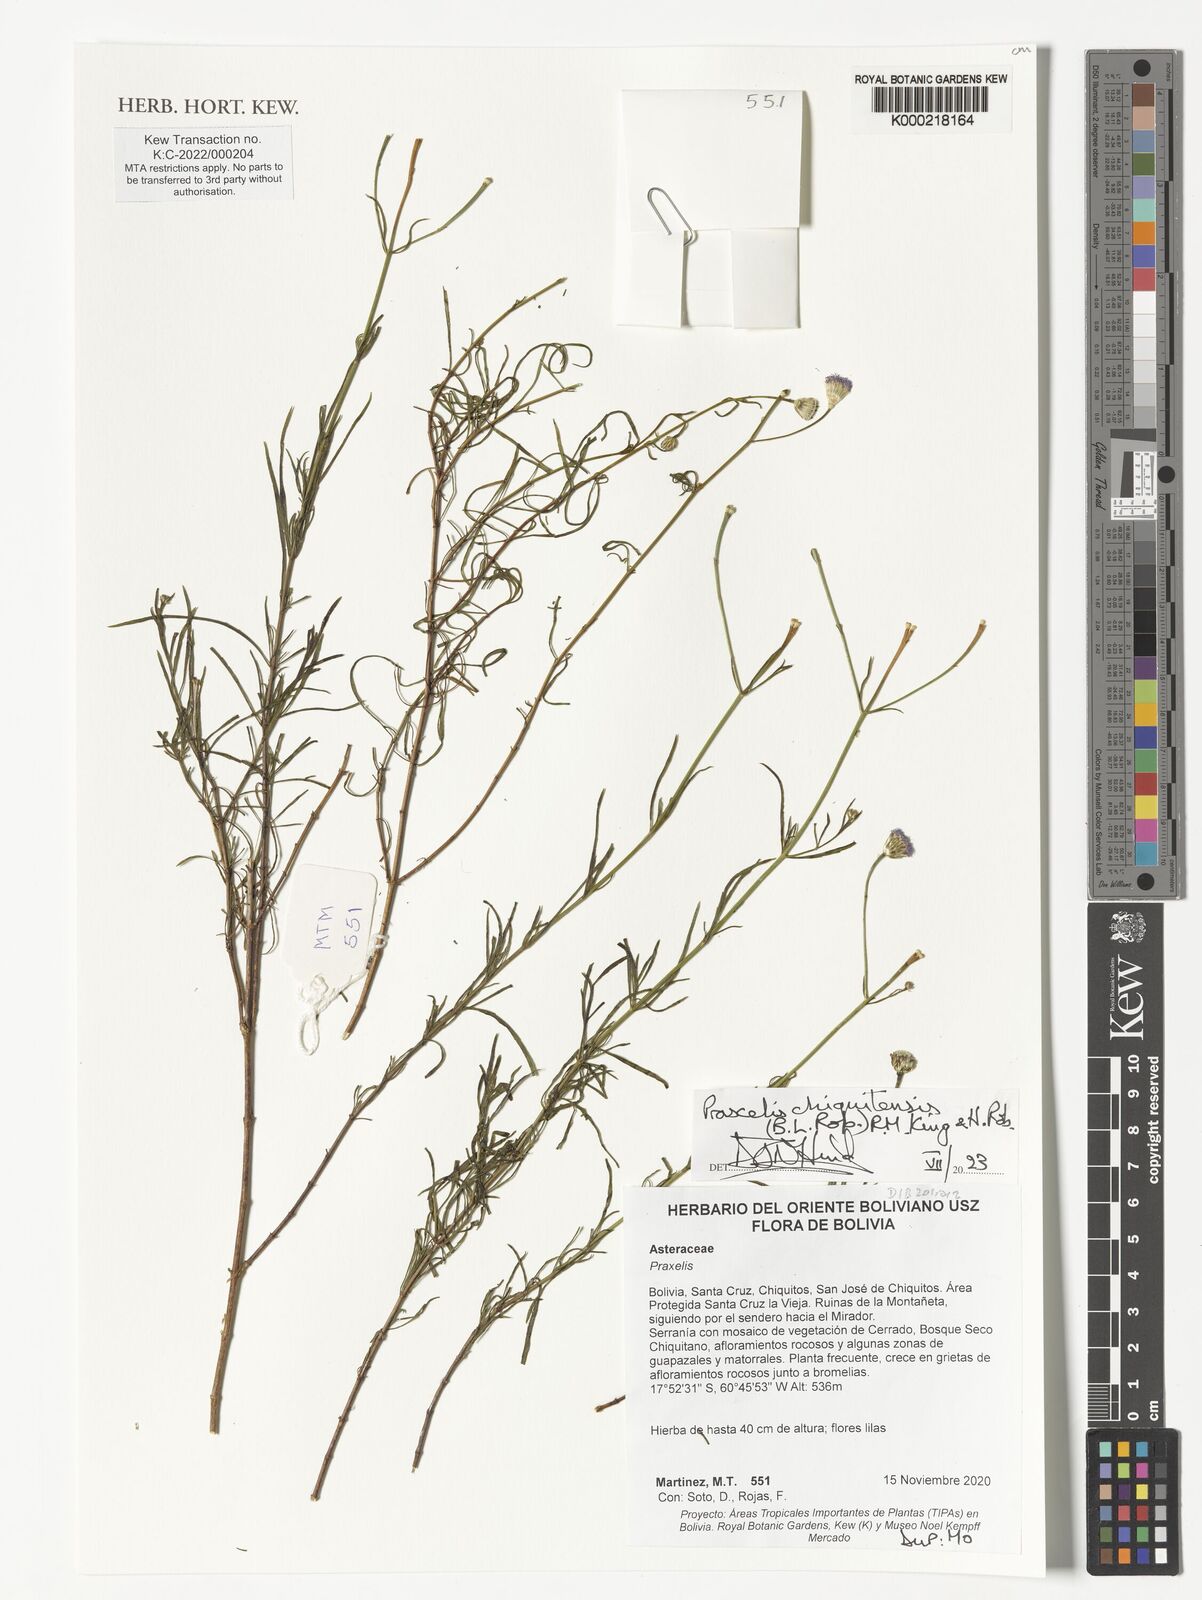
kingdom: Plantae
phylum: Tracheophyta
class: Magnoliopsida
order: Asterales
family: Asteraceae
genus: Praxelis
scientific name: Praxelis chiquitensis
